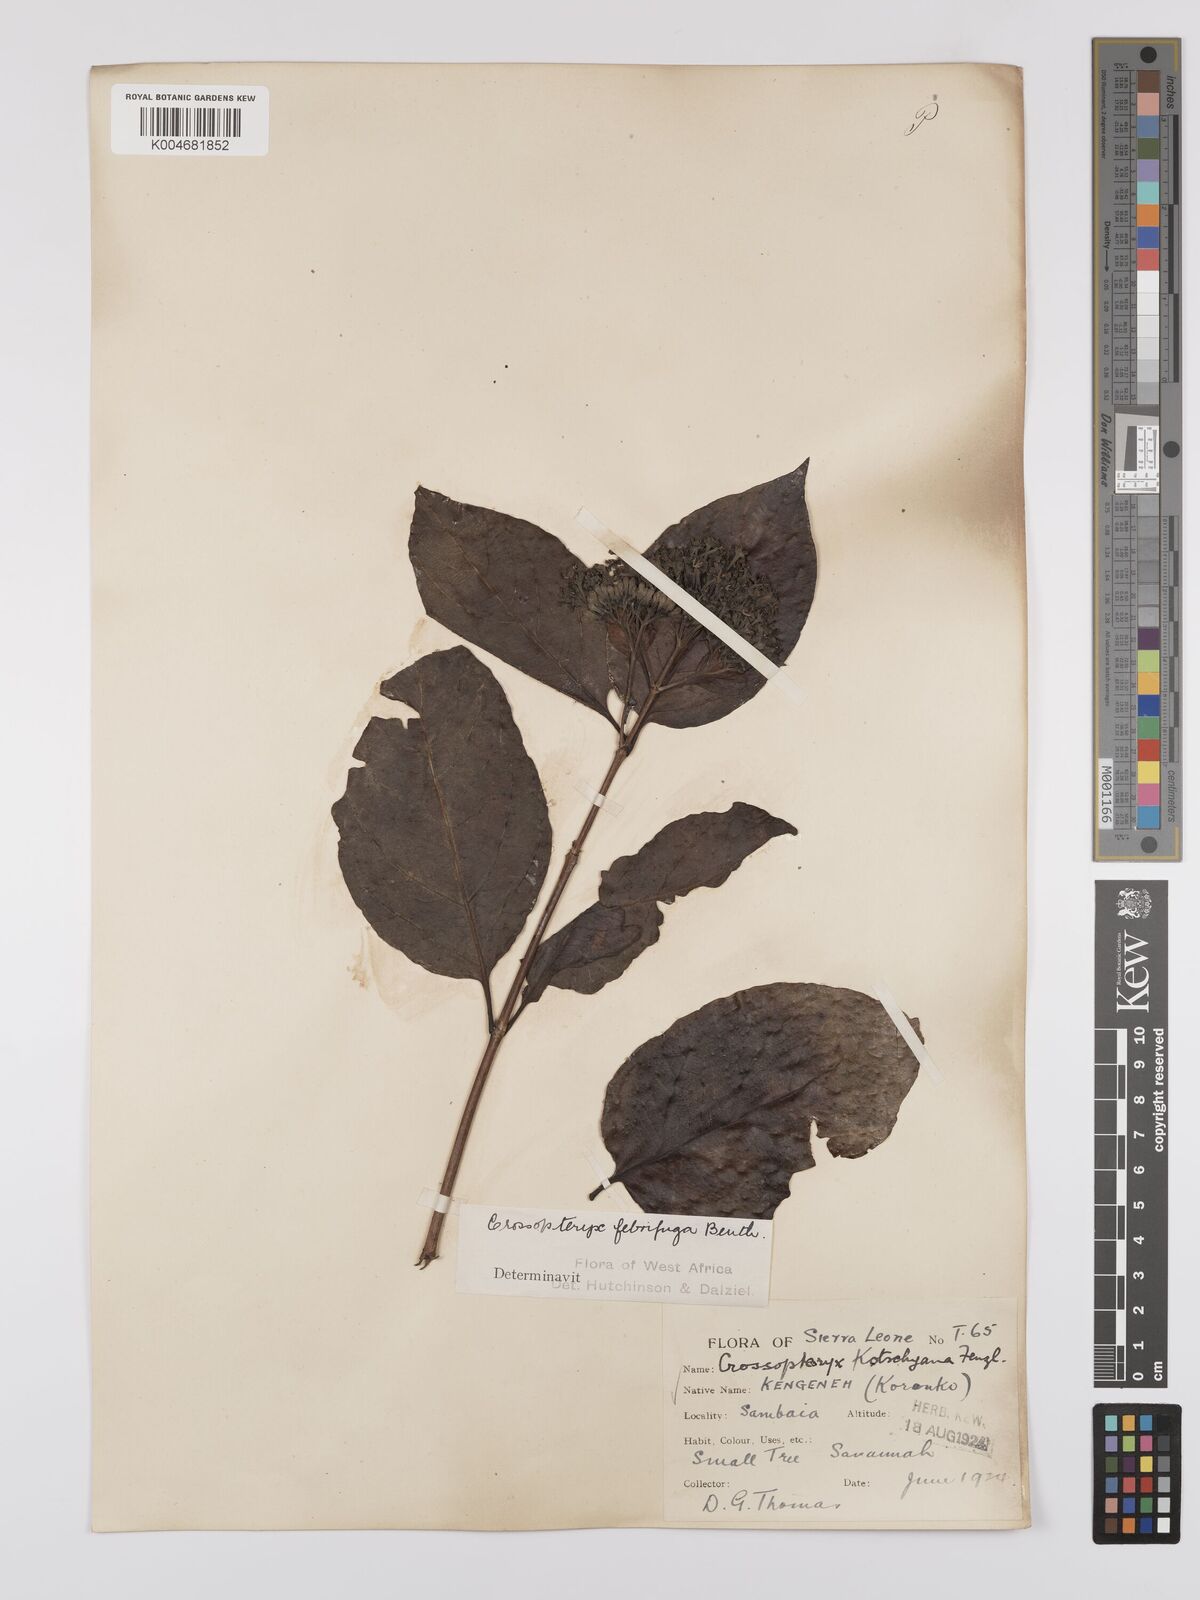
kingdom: Plantae
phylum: Tracheophyta
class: Magnoliopsida
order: Gentianales
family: Rubiaceae
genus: Crossopteryx
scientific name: Crossopteryx febrifuga
